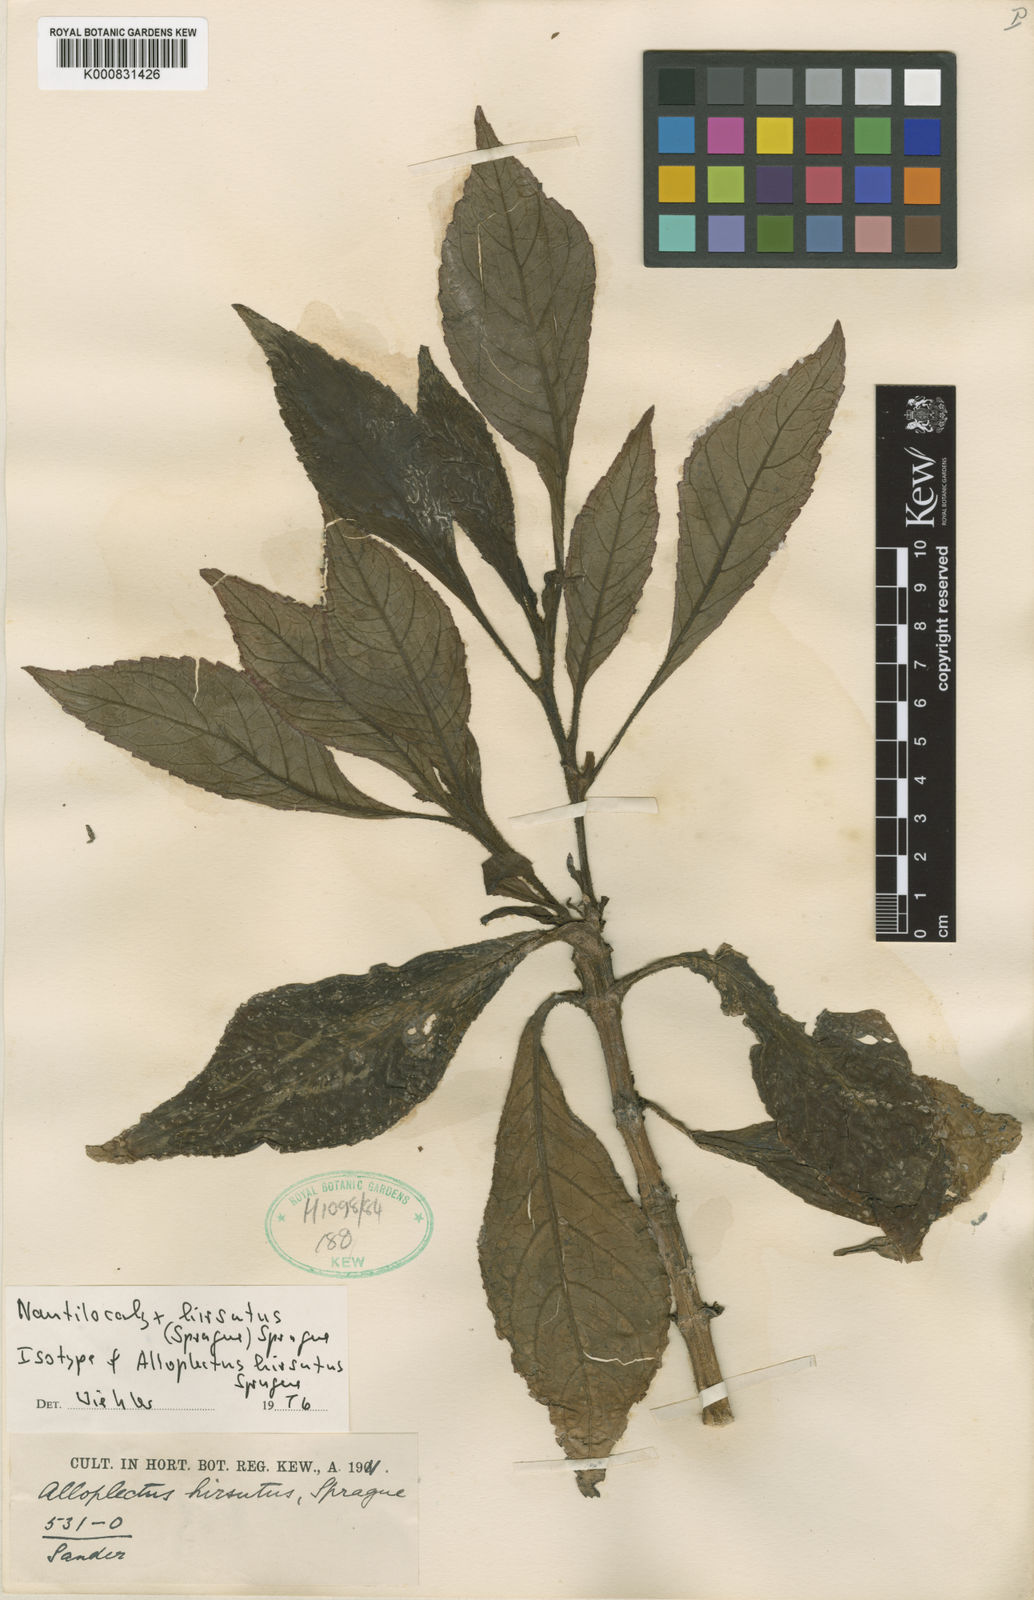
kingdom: Plantae
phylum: Tracheophyta
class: Magnoliopsida
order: Lamiales
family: Gesneriaceae
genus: Nautilocalyx
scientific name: Nautilocalyx hirsutus
